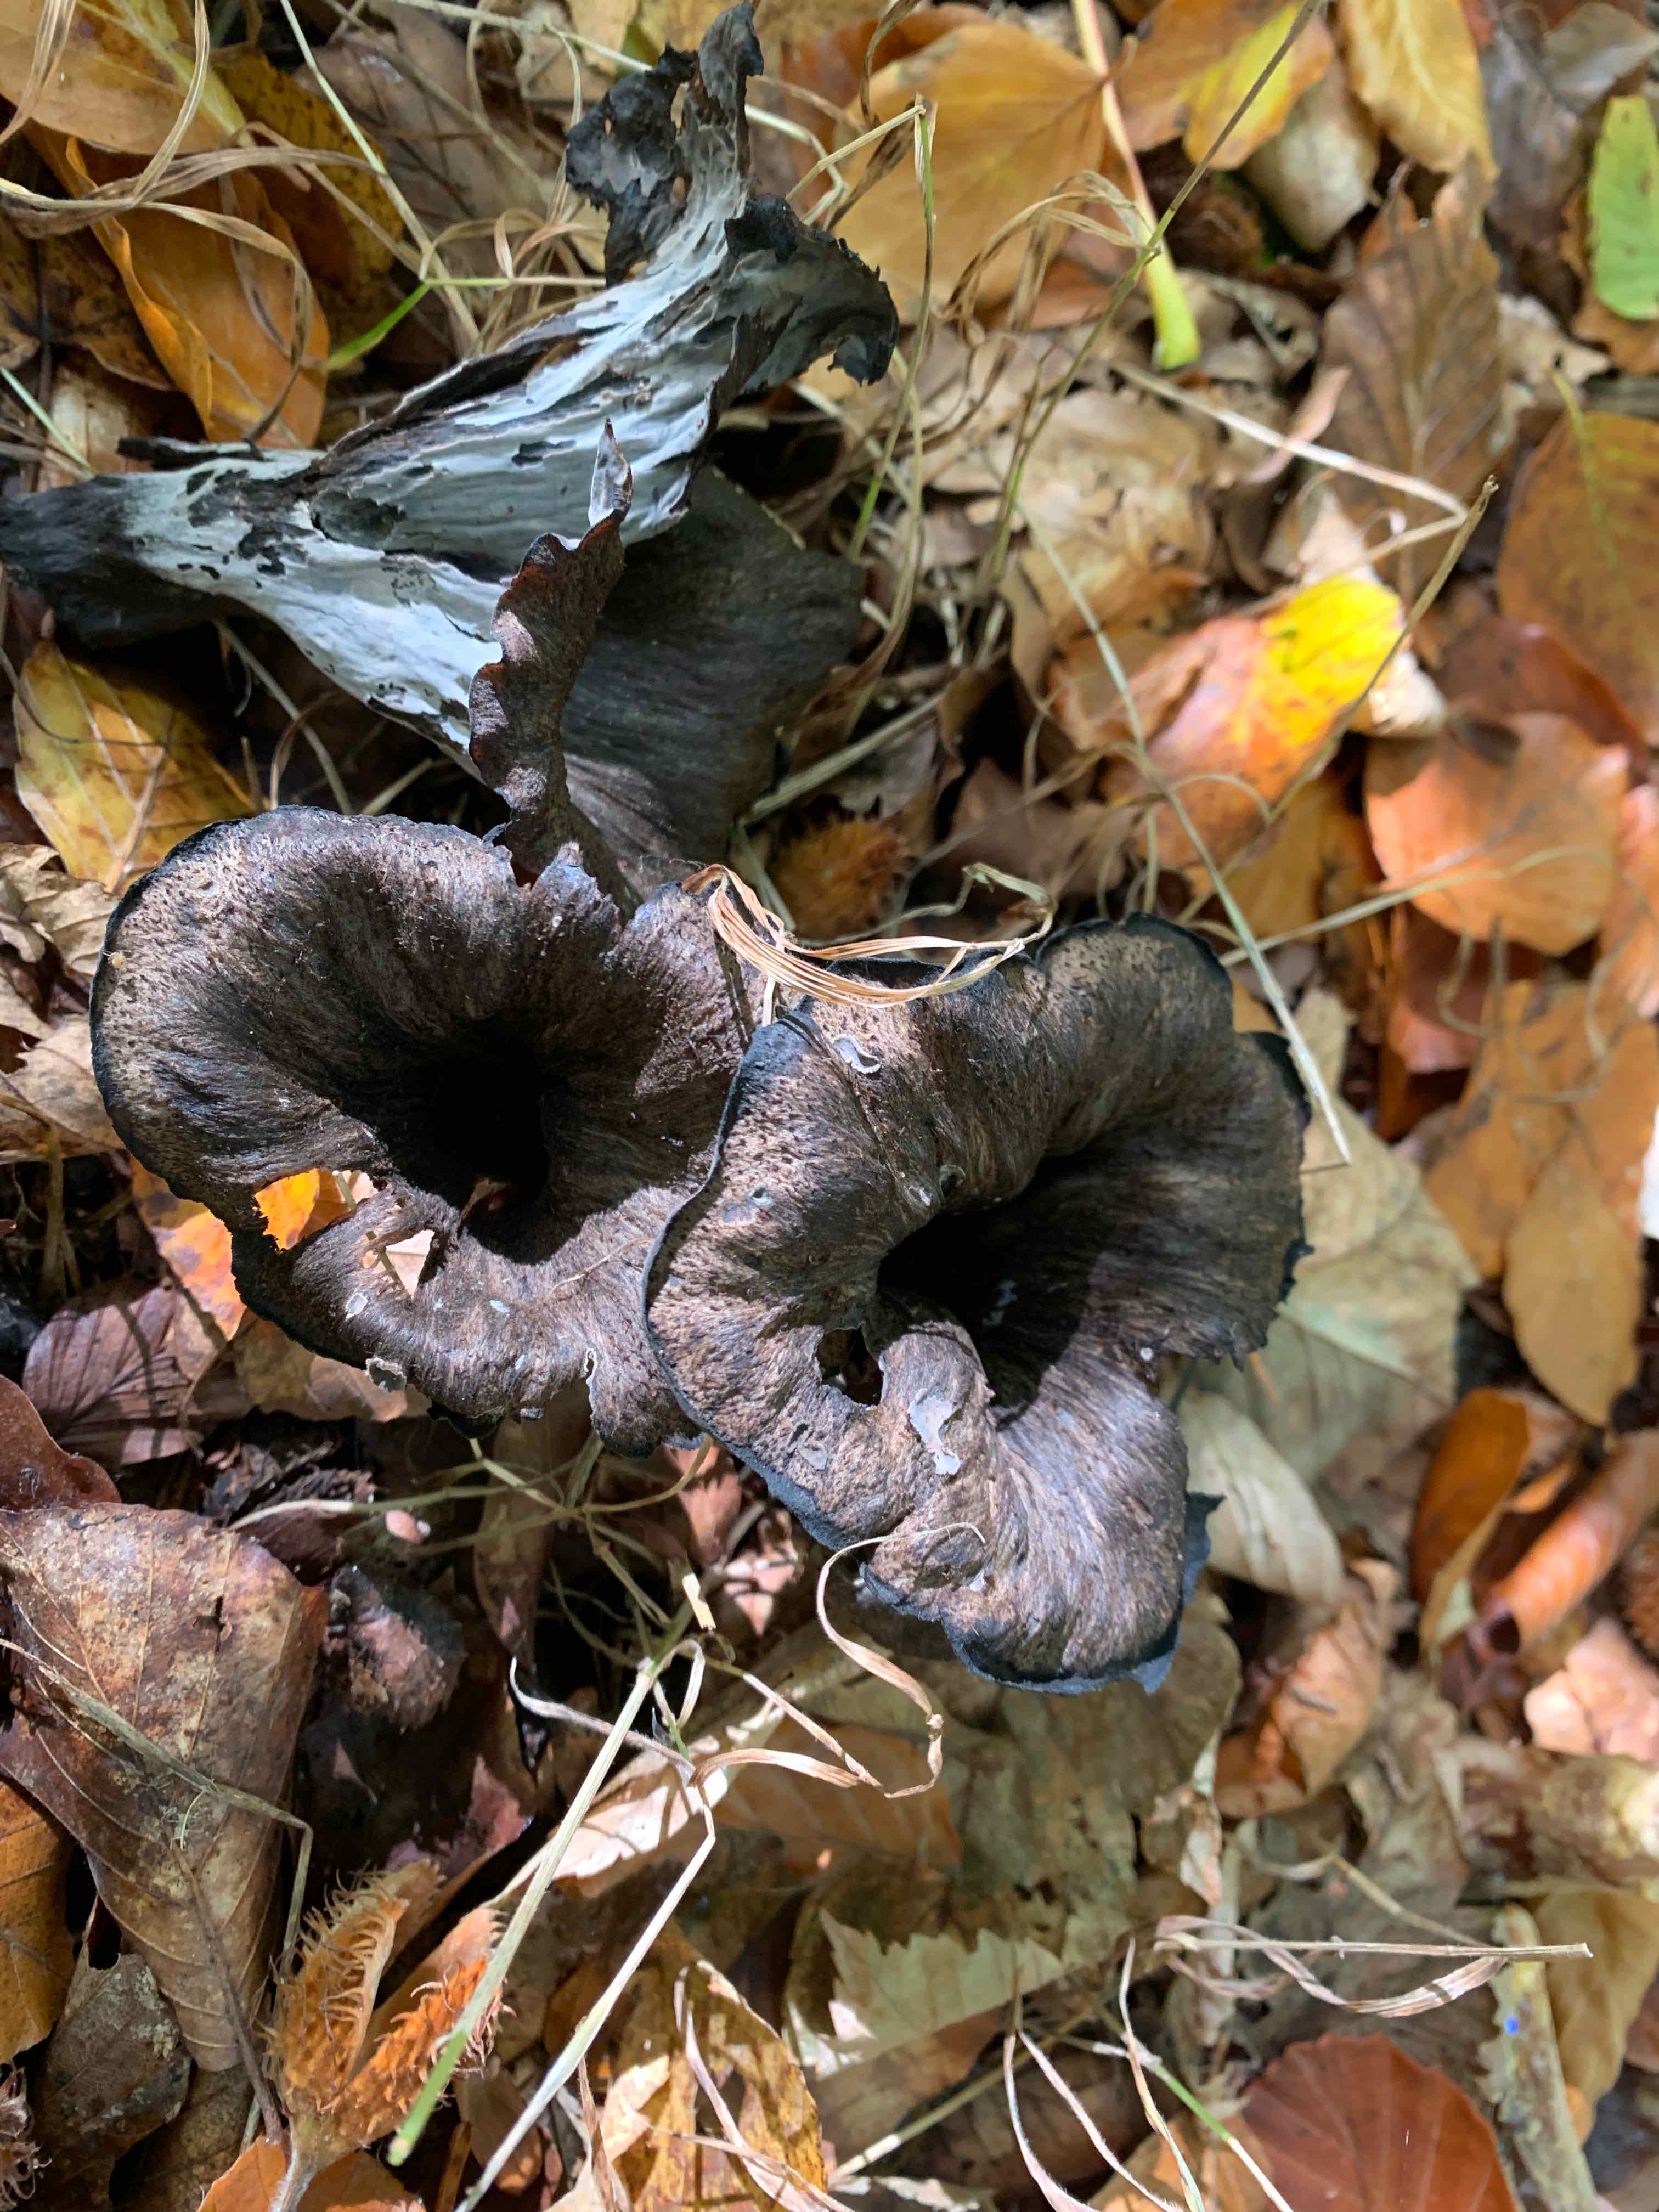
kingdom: Fungi
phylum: Basidiomycota
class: Agaricomycetes
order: Cantharellales
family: Hydnaceae
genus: Craterellus
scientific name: Craterellus cornucopioides
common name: trompetsvamp
